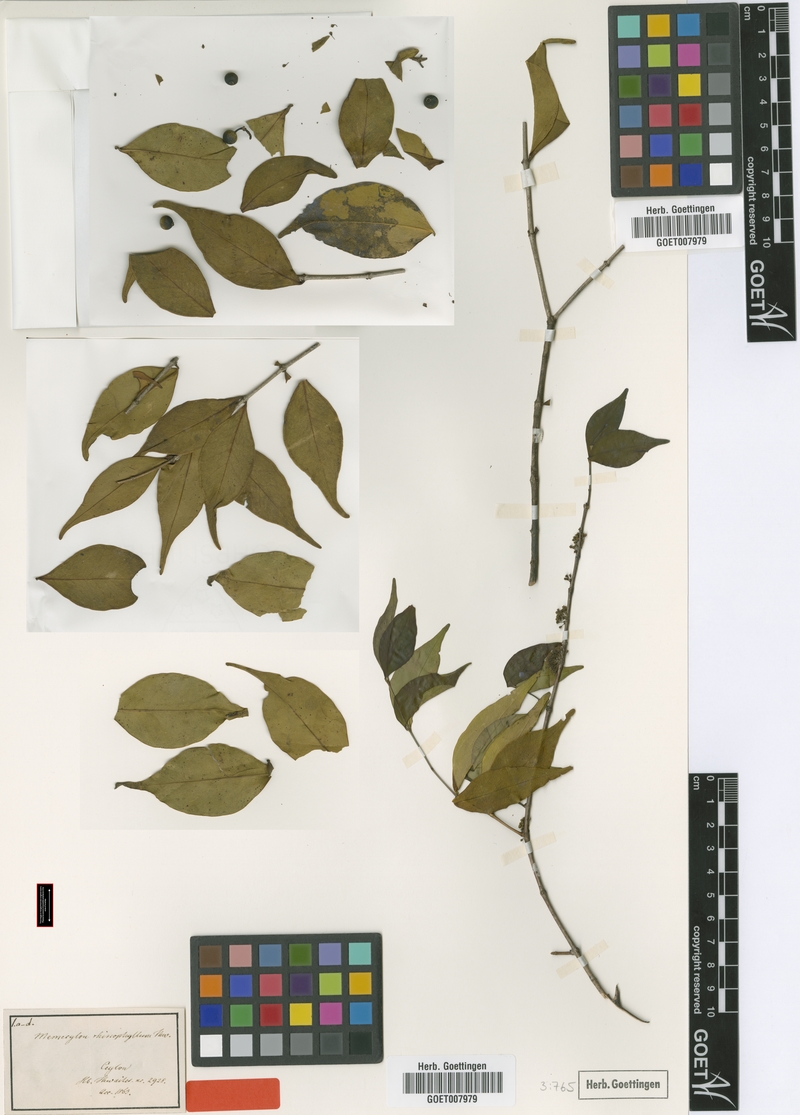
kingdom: Plantae
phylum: Tracheophyta
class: Magnoliopsida
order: Myrtales
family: Melastomataceae
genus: Memecylon
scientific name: Memecylon rhinophyllum
